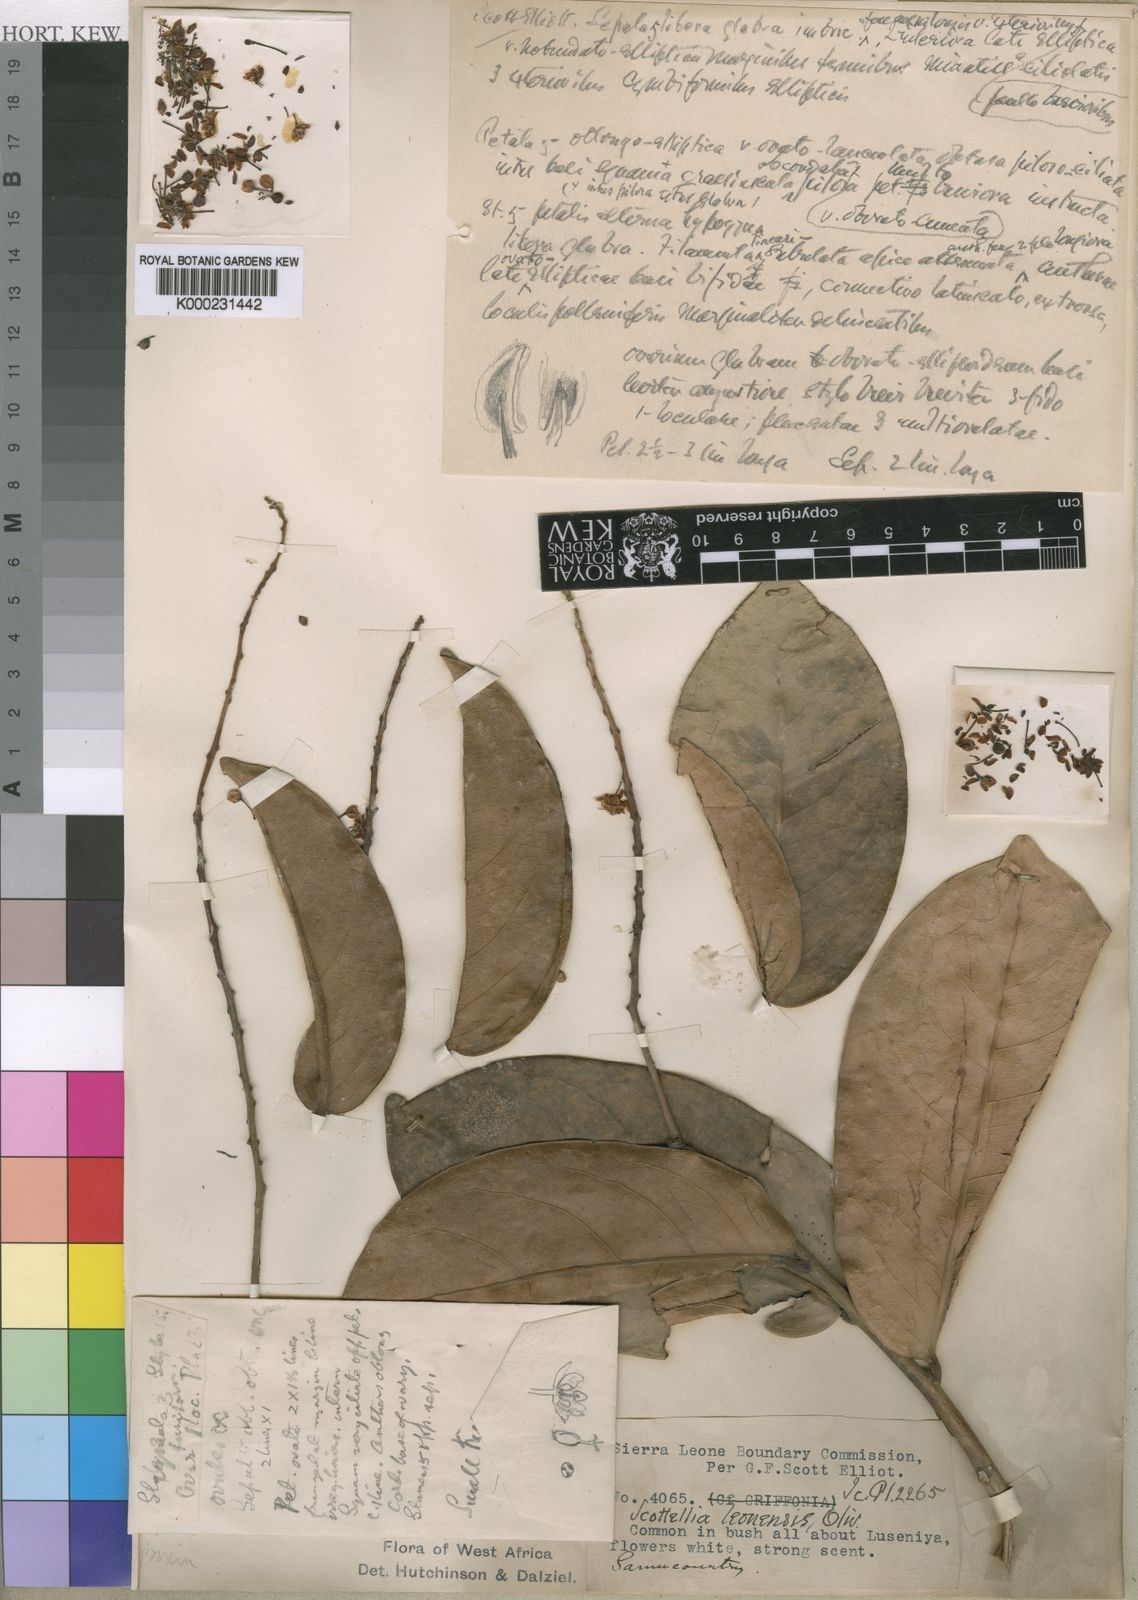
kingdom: Plantae
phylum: Tracheophyta
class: Magnoliopsida
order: Malpighiales
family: Achariaceae
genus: Scottellia
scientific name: Scottellia leonensis
